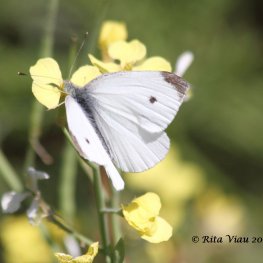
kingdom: Animalia
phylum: Arthropoda
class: Insecta
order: Lepidoptera
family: Pieridae
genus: Pieris
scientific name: Pieris rapae
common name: Cabbage White
